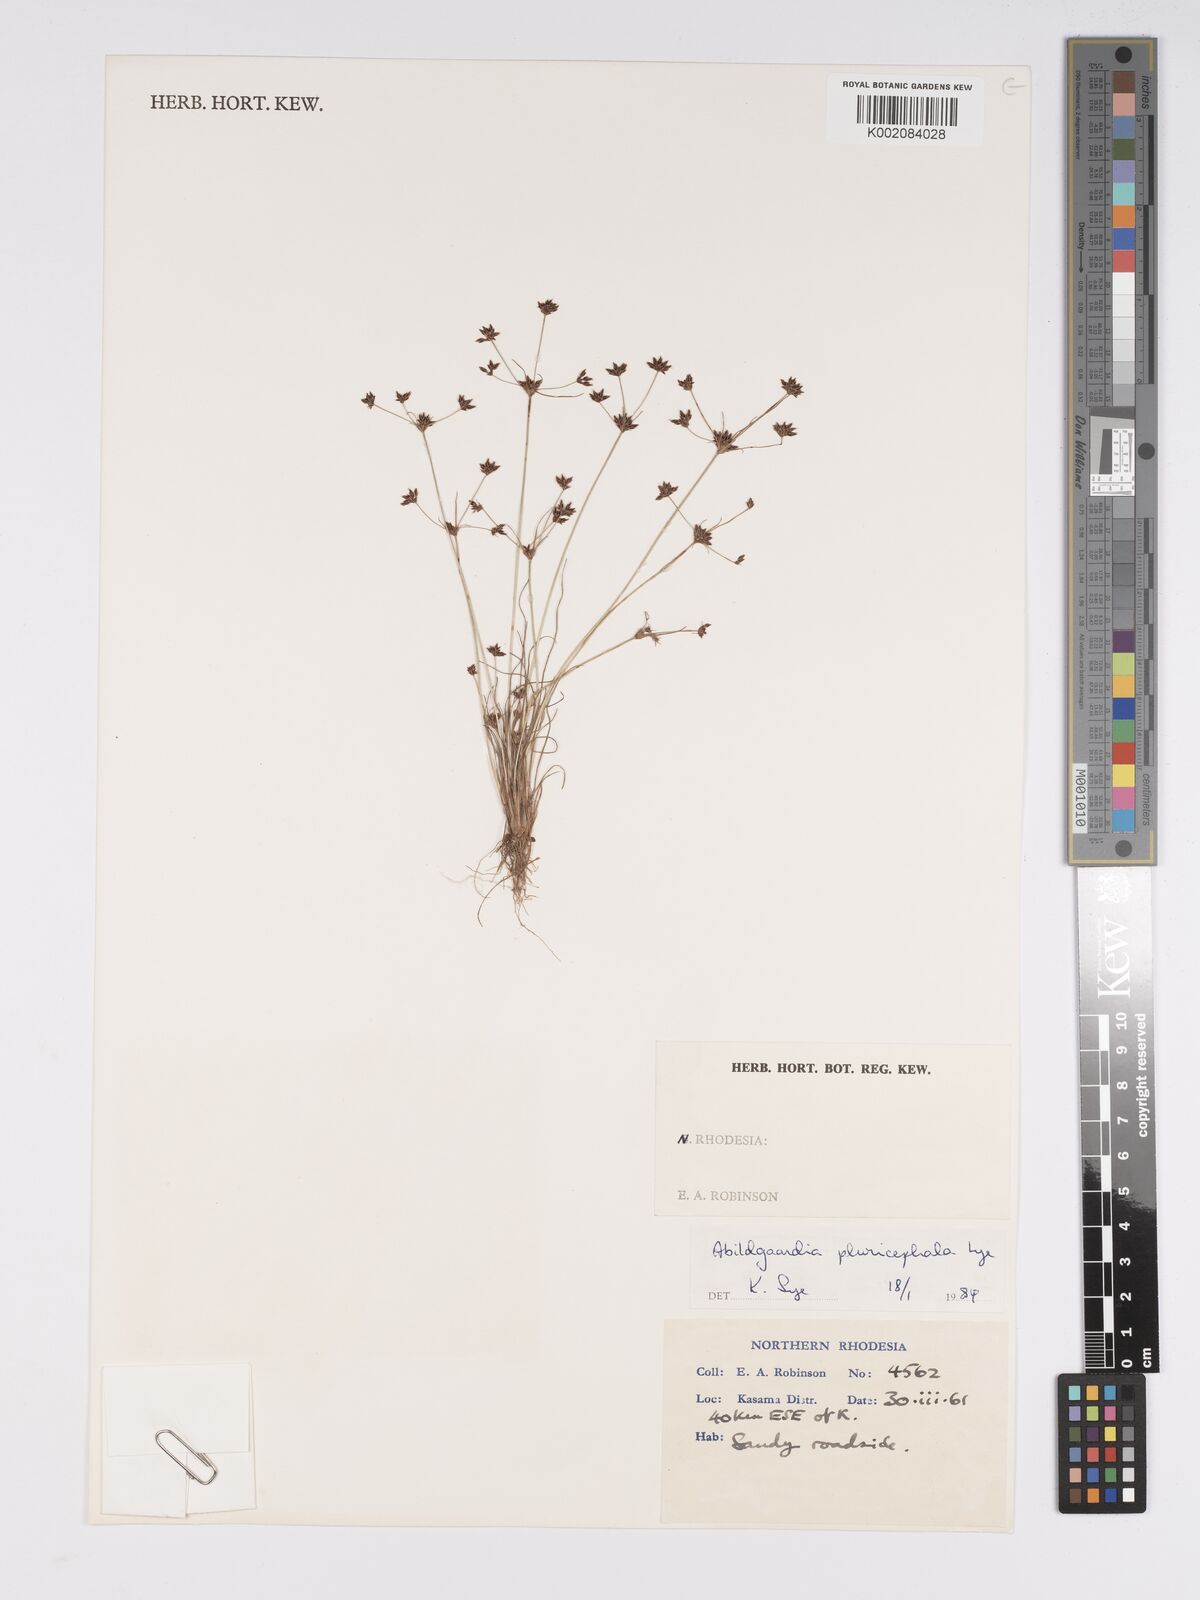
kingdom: Plantae
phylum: Tracheophyta
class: Liliopsida
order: Poales
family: Cyperaceae
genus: Bulbostylis
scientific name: Bulbostylis pluricephala
